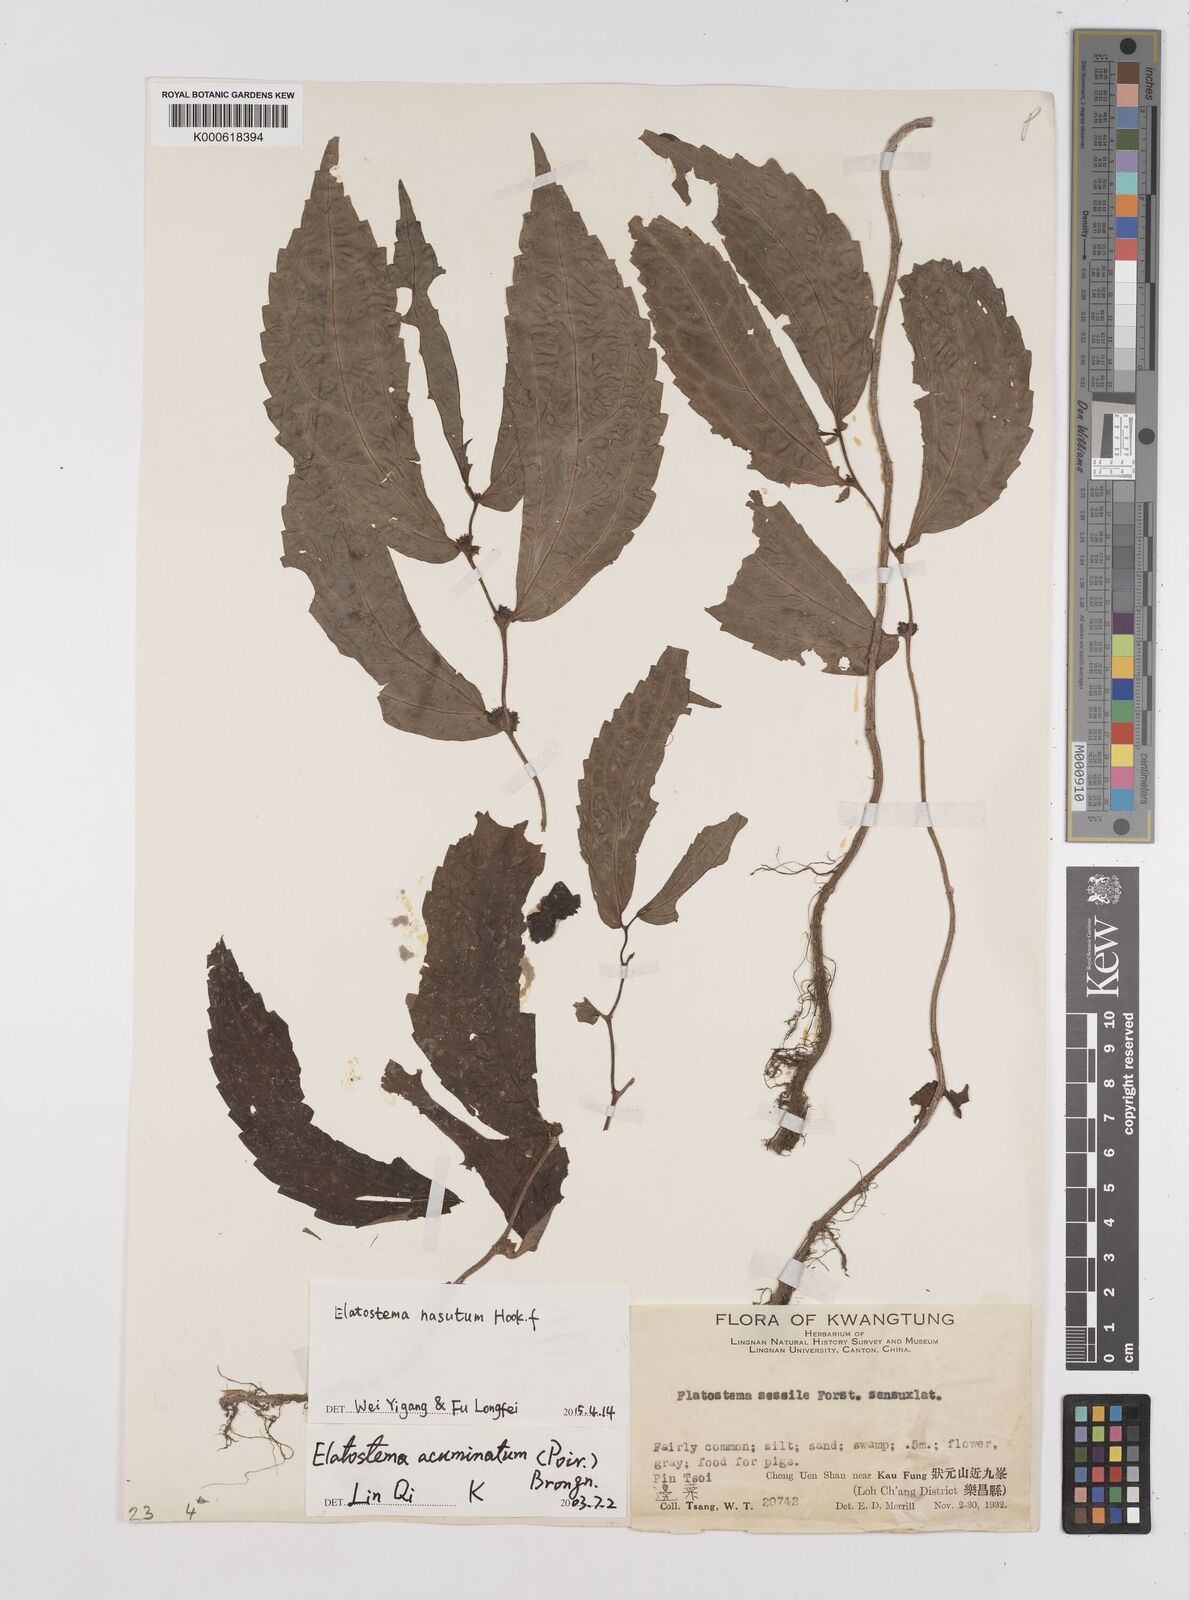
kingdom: Plantae
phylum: Tracheophyta
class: Magnoliopsida
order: Rosales
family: Urticaceae
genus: Elatostema
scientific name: Elatostema nasutum
